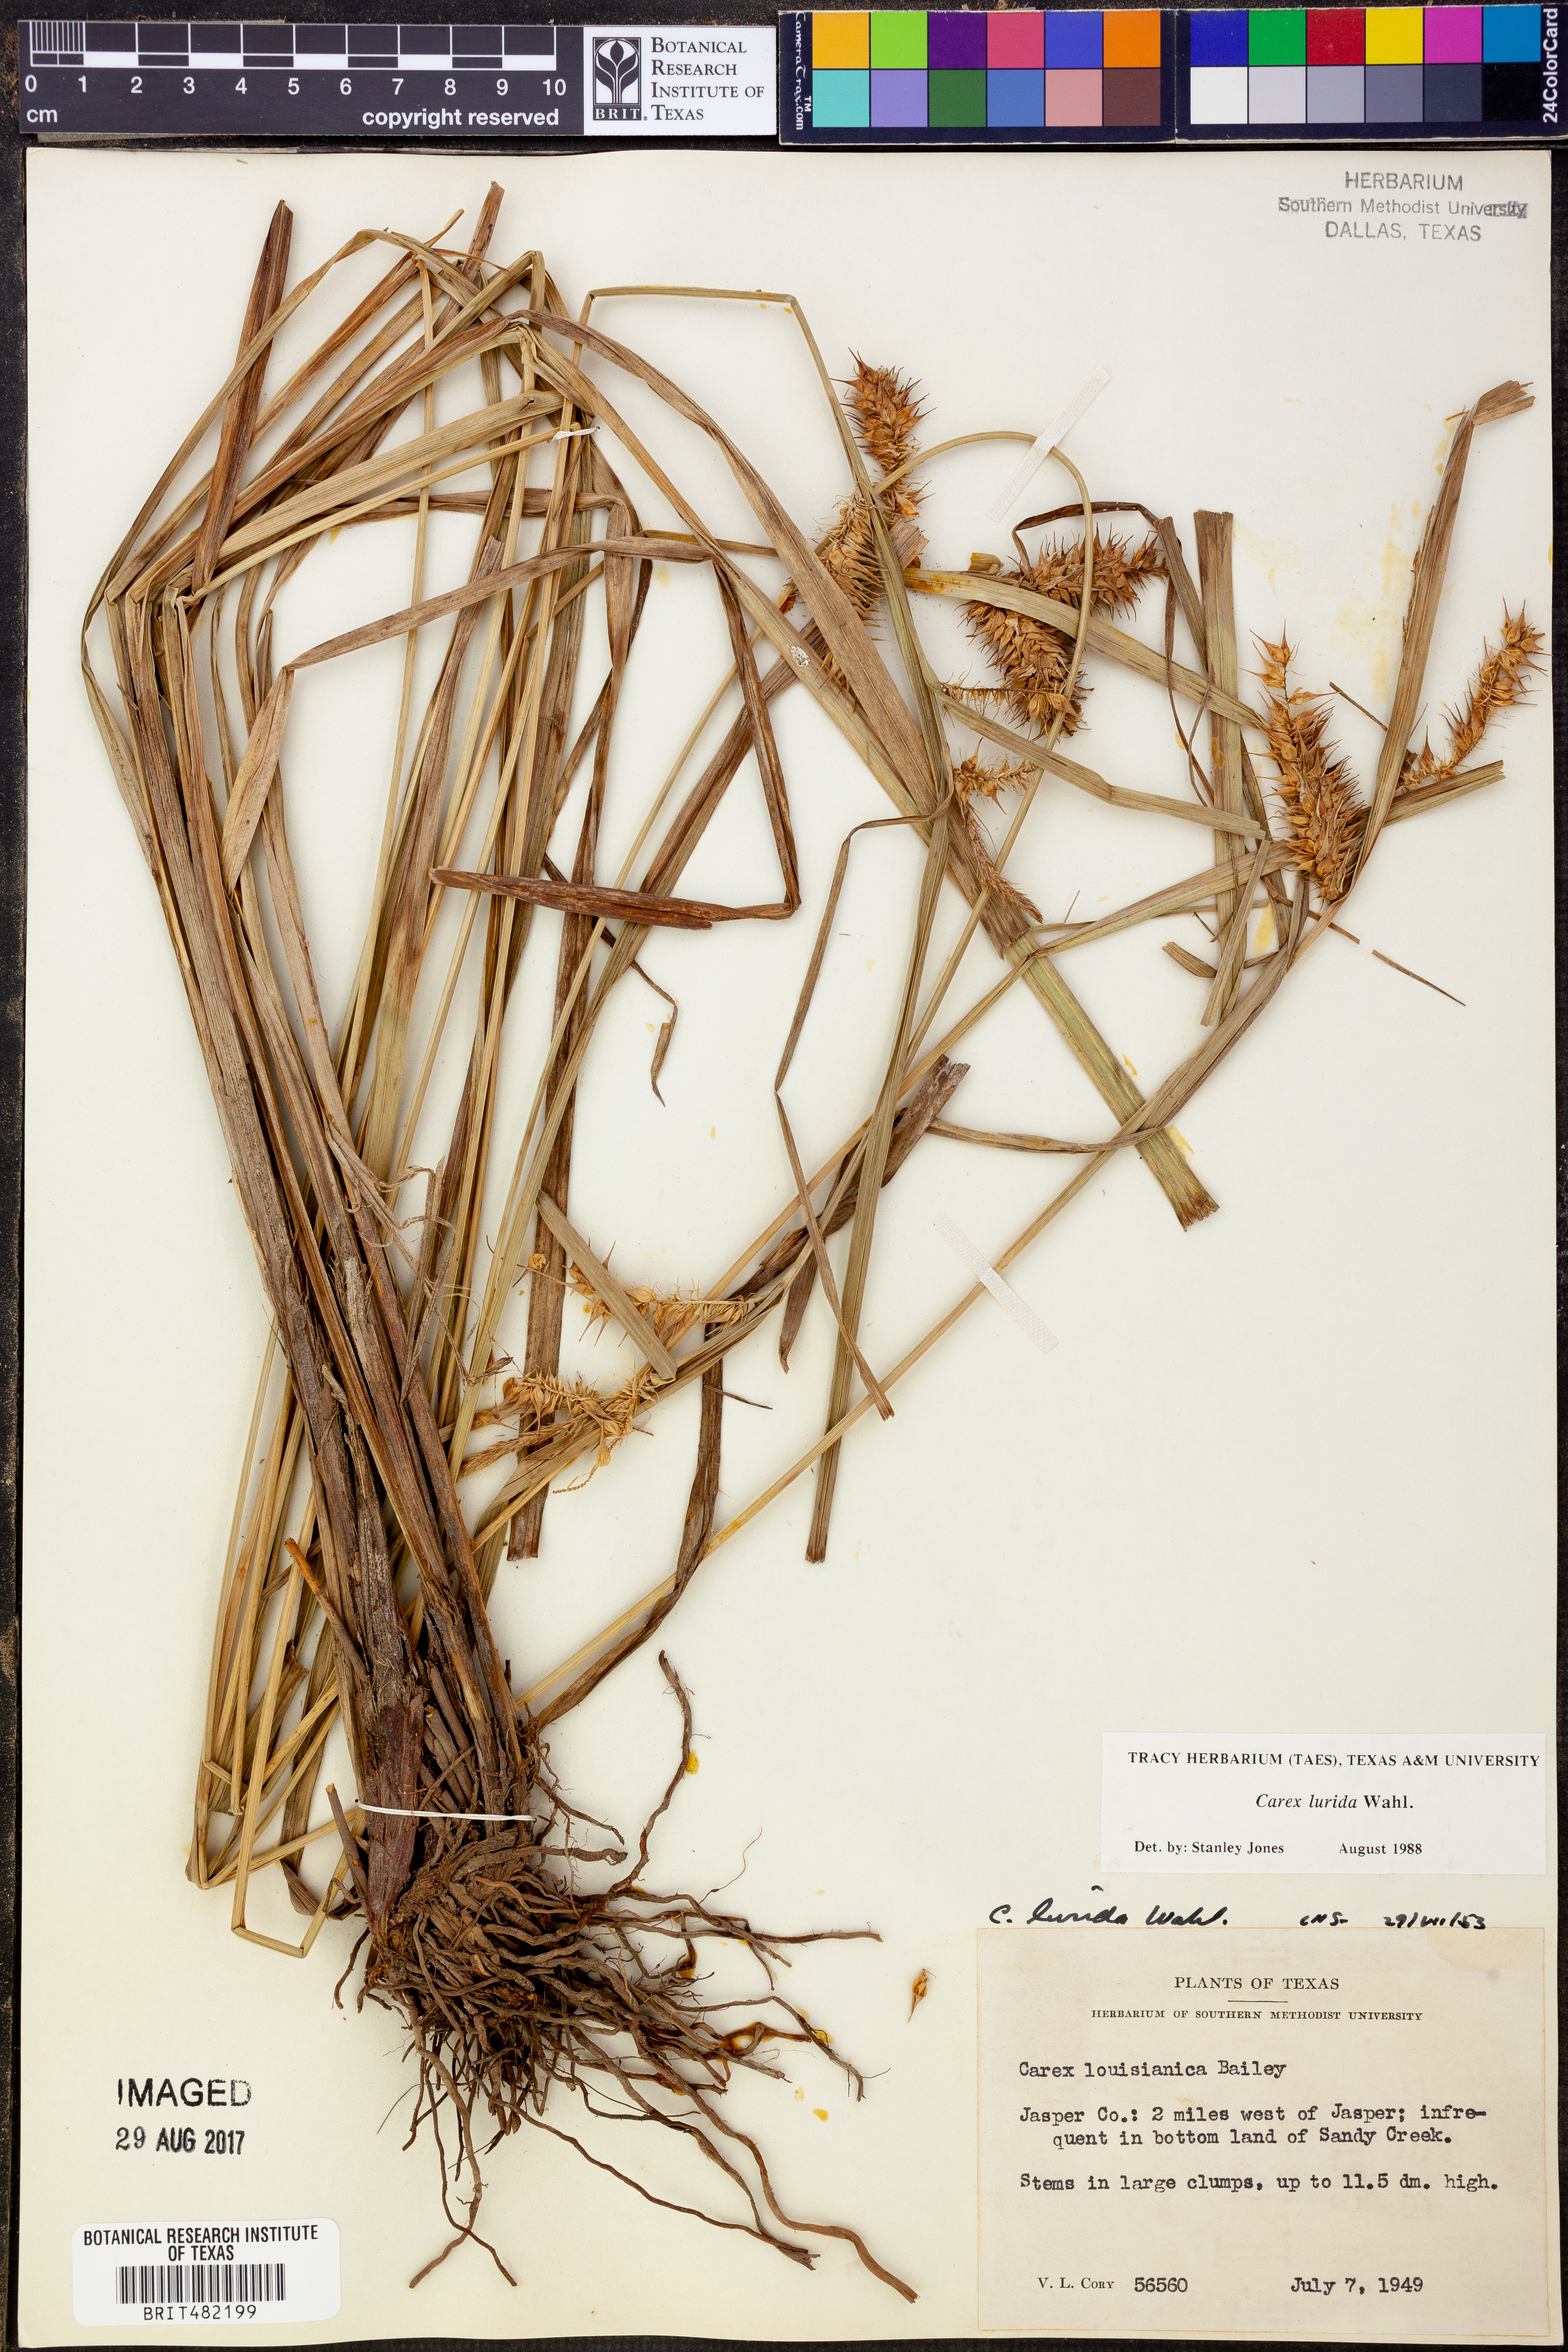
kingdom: Plantae
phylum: Tracheophyta
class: Liliopsida
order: Poales
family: Cyperaceae
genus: Carex
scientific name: Carex lurida
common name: Sallow sedge
